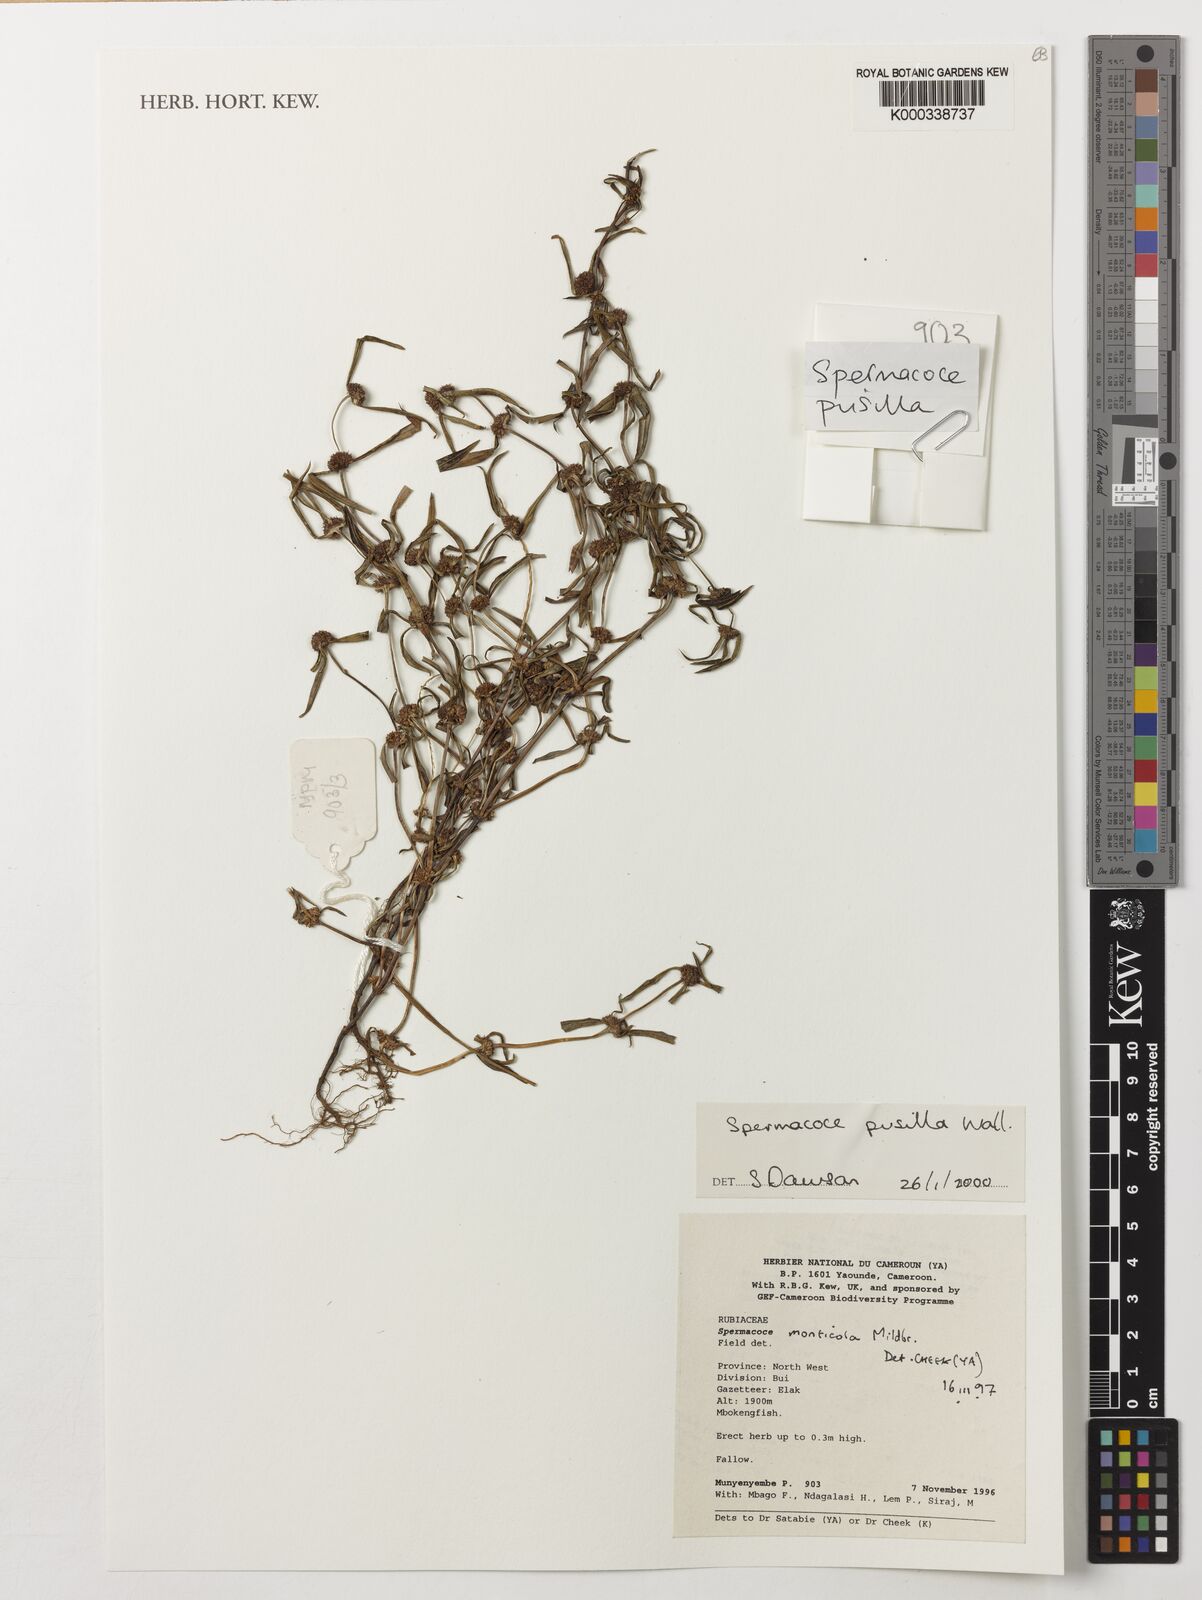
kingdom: Plantae
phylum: Tracheophyta
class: Magnoliopsida
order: Gentianales
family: Rubiaceae
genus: Spermacoce
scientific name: Spermacoce pusilla
